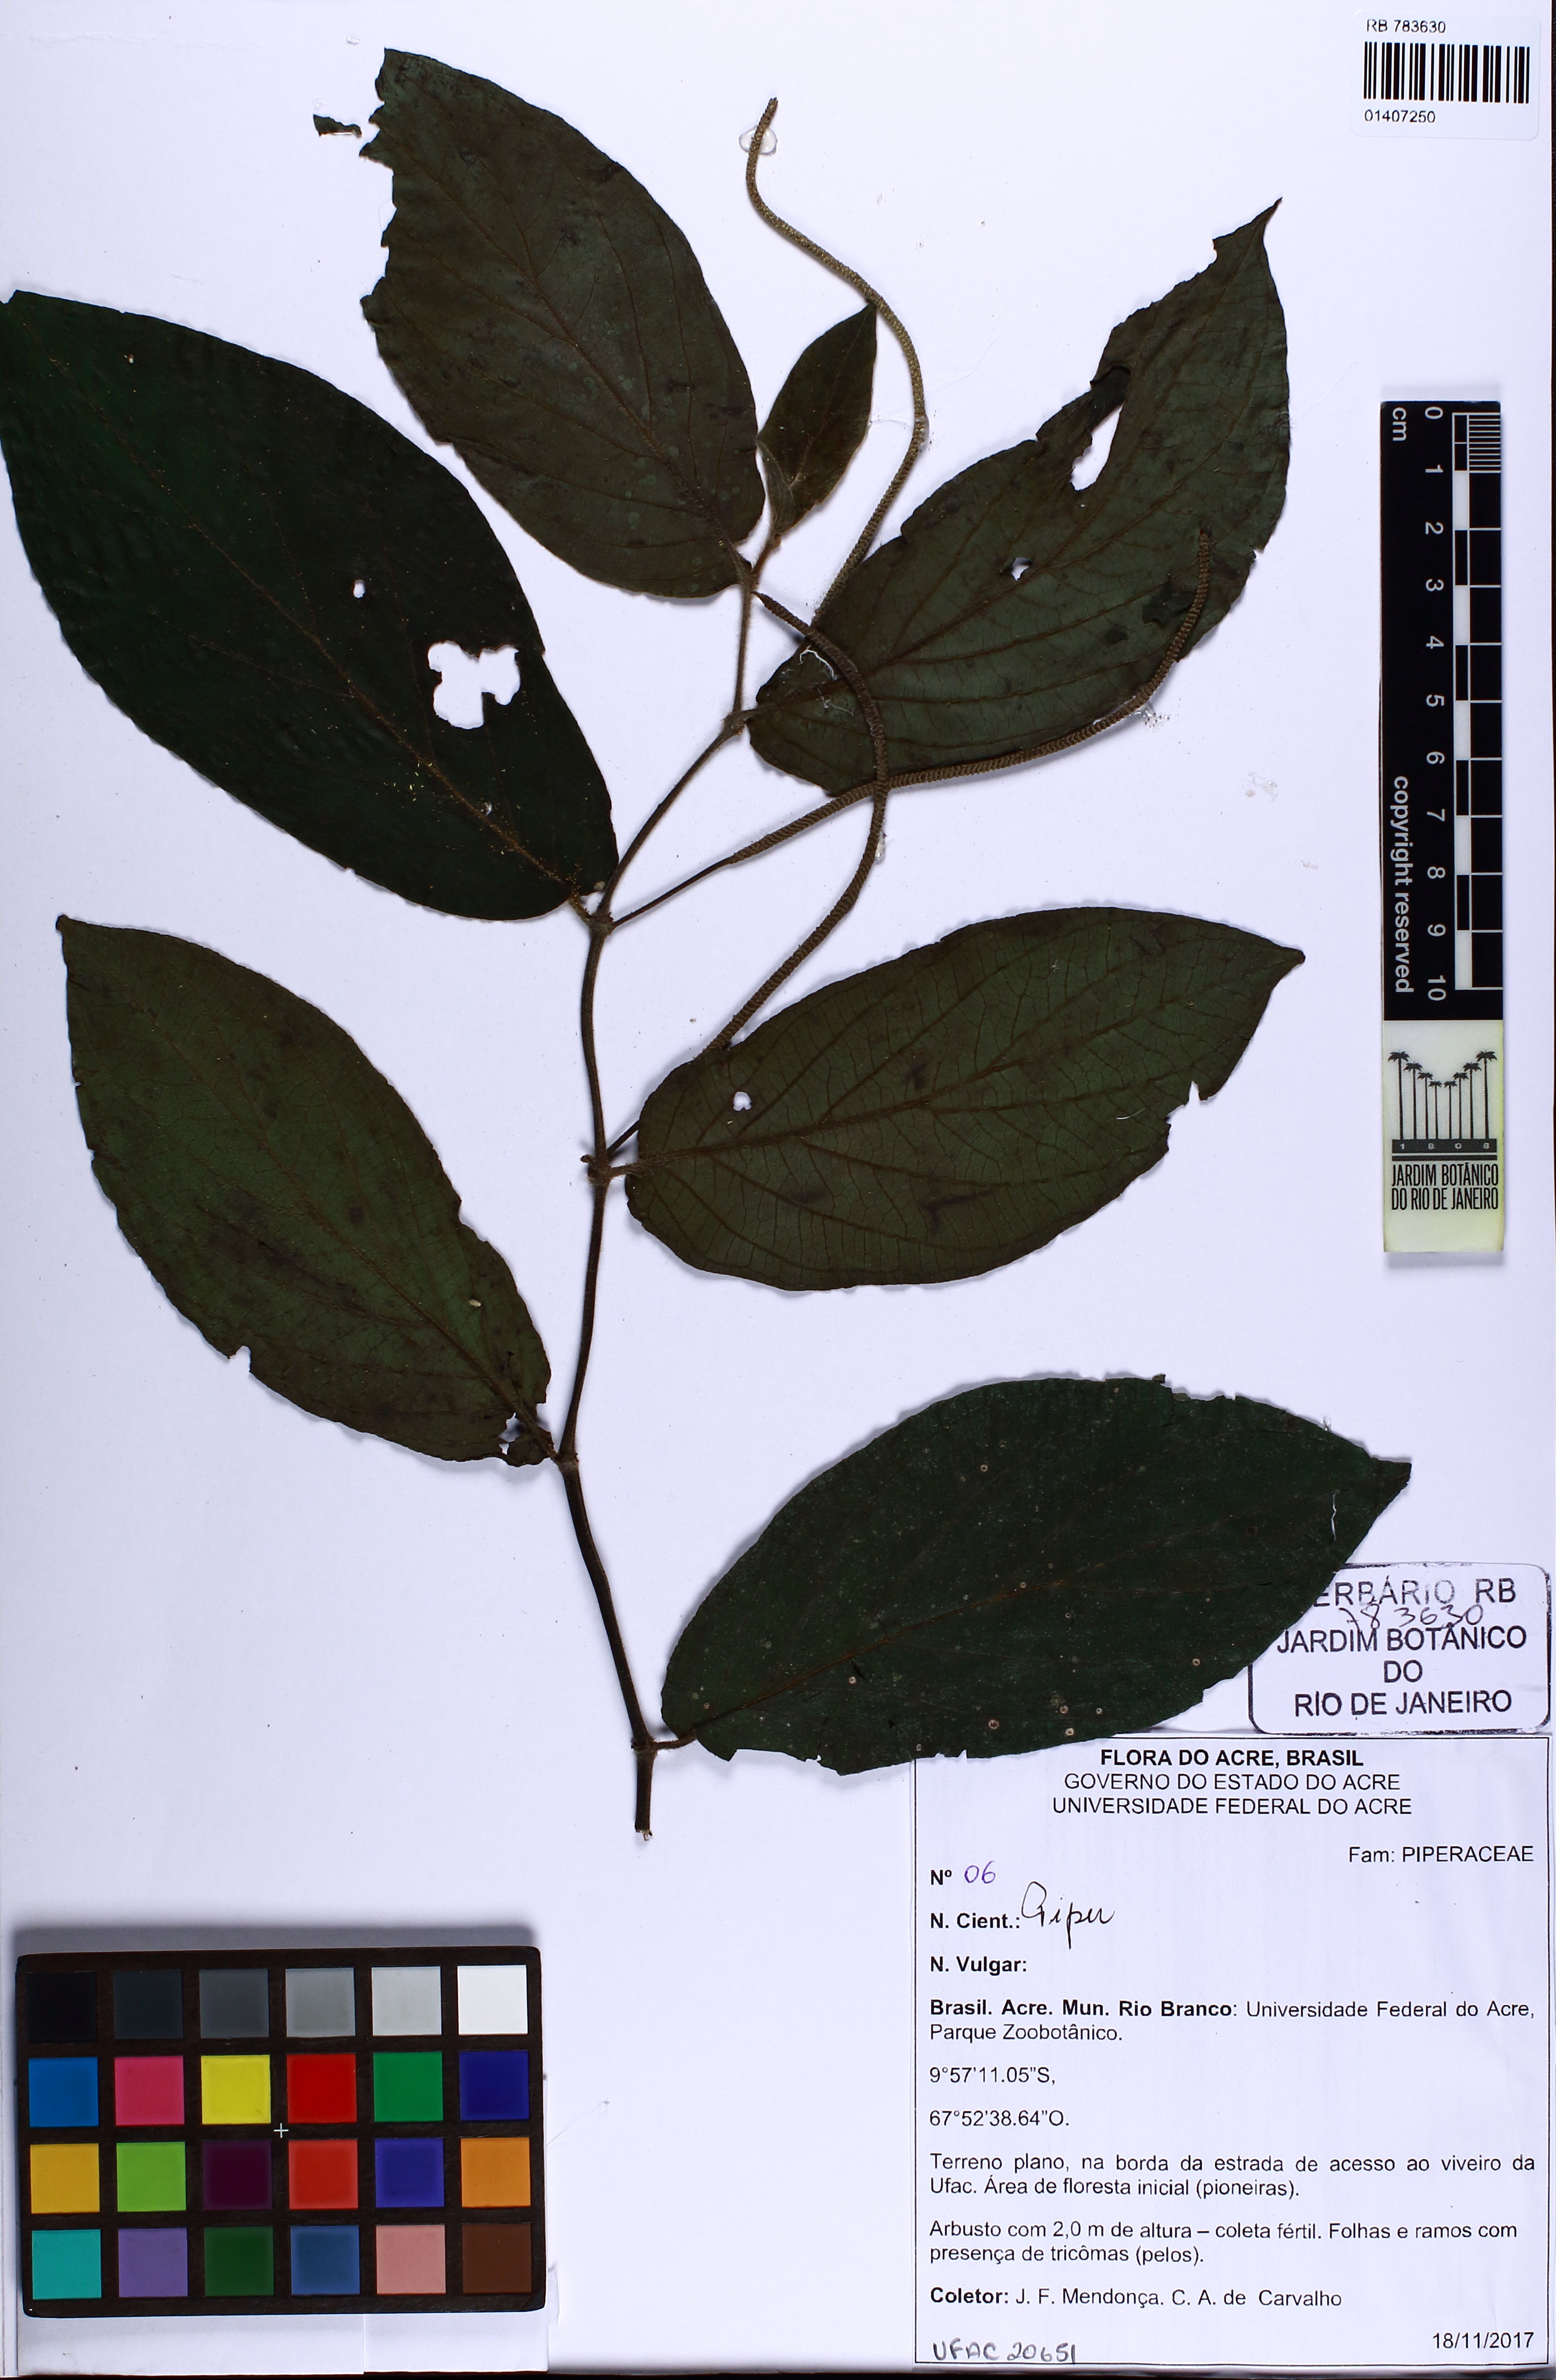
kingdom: Plantae
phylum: Tracheophyta
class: Magnoliopsida
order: Piperales
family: Piperaceae
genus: Piper
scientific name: Piper
